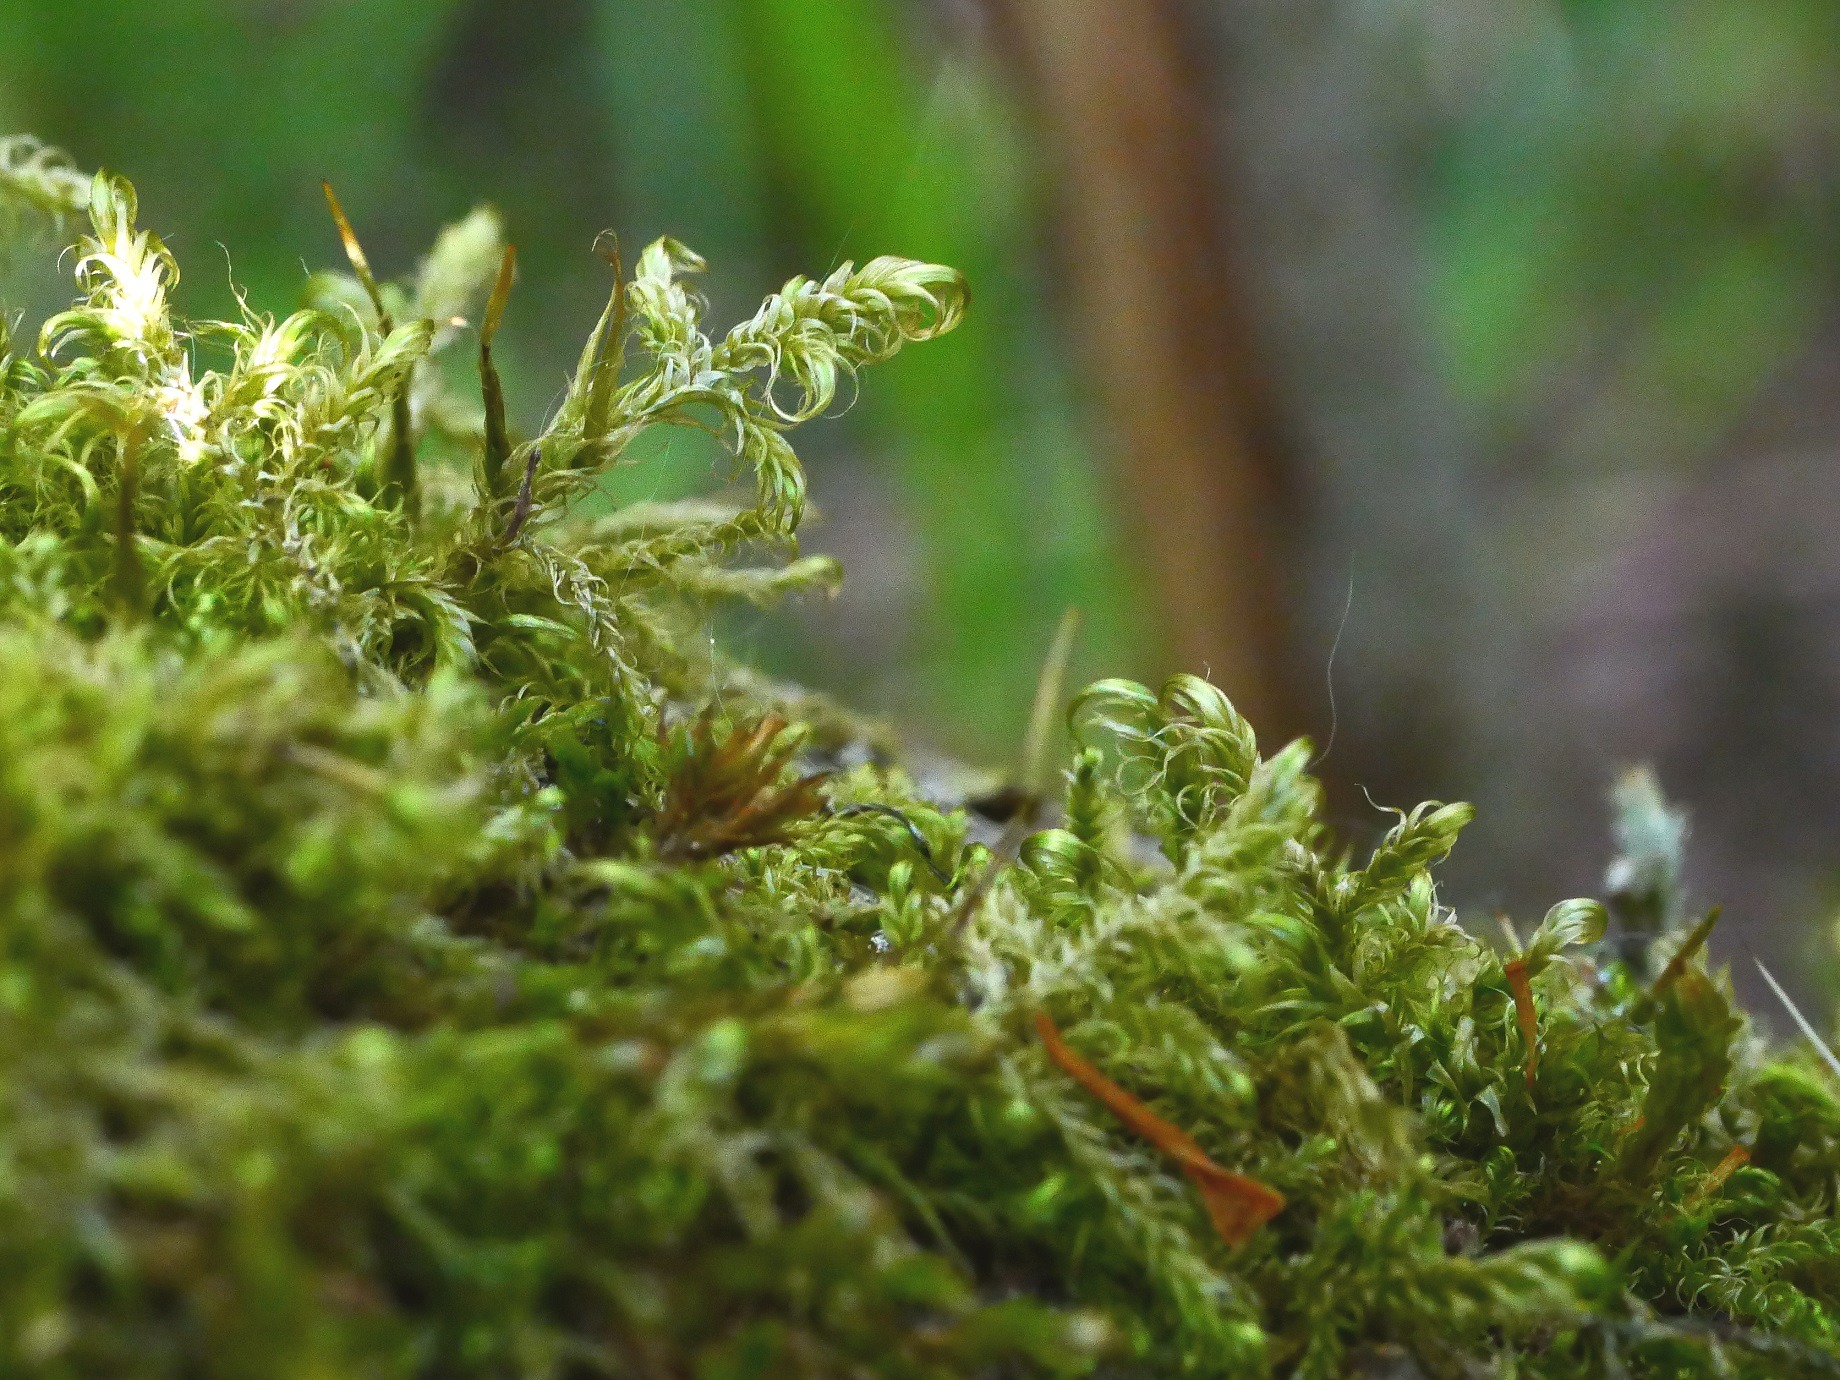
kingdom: Plantae
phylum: Bryophyta
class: Bryopsida
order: Hypnales
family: Scorpidiaceae
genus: Sanionia
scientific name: Sanionia uncinata
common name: Stribet krogblad
